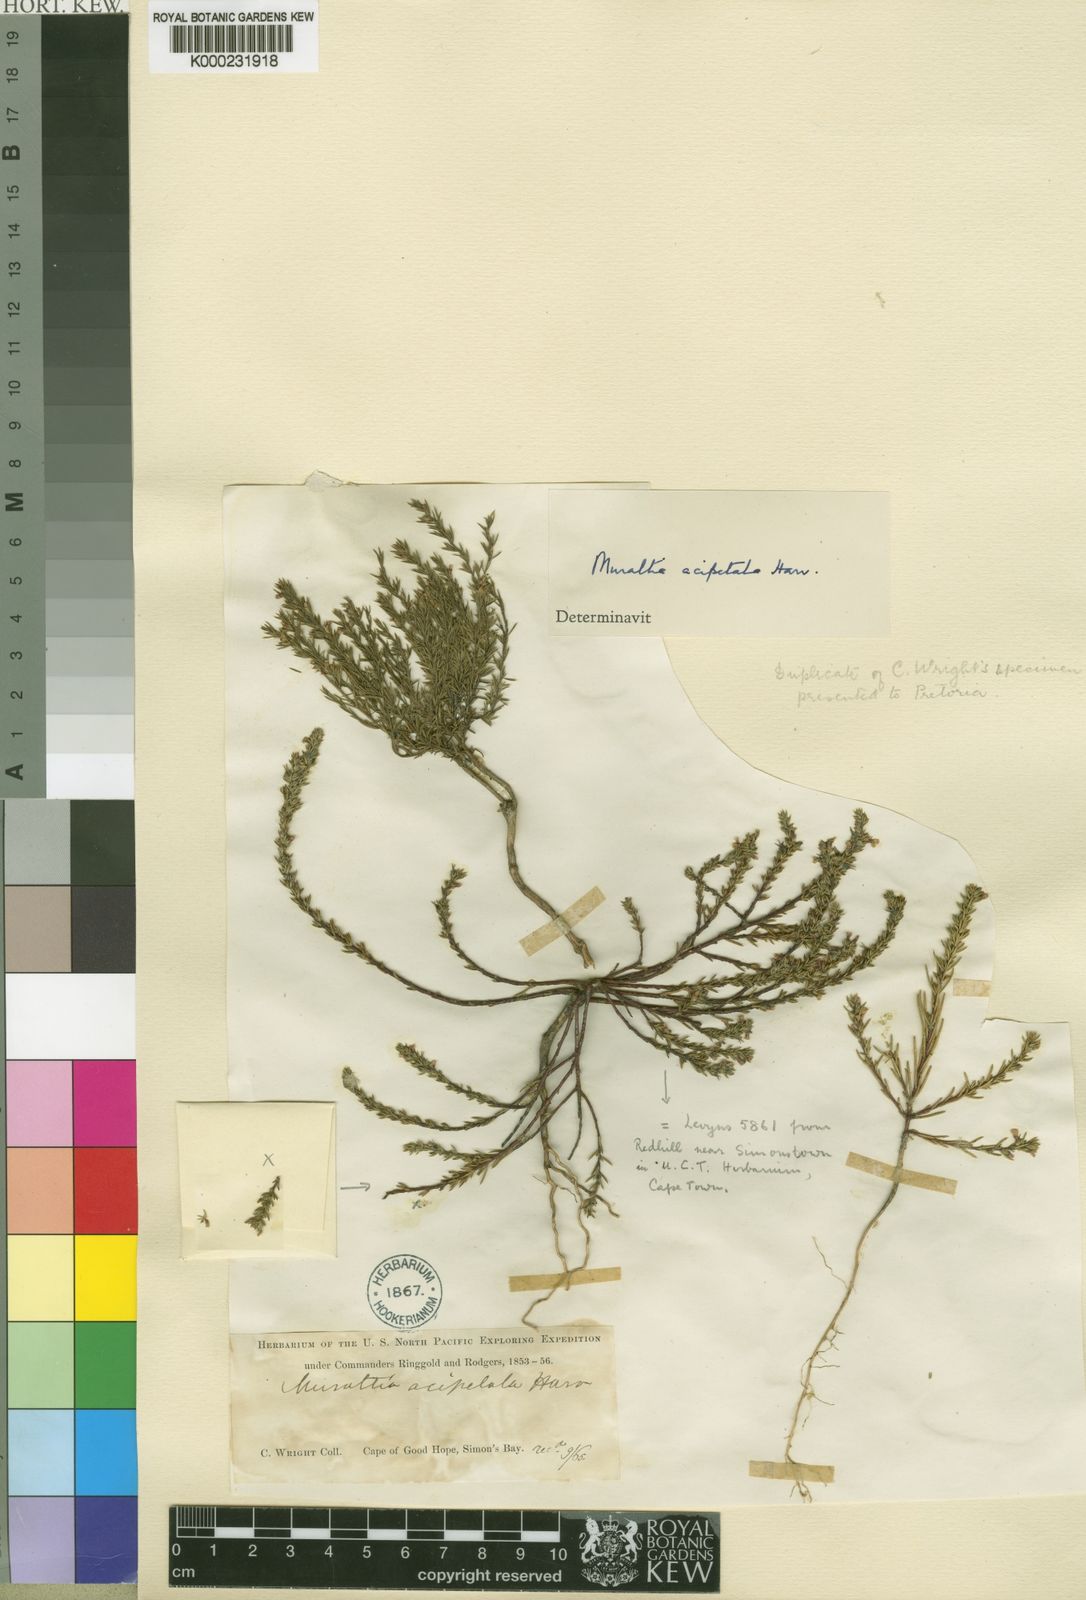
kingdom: Plantae
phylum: Tracheophyta
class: Magnoliopsida
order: Fabales
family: Polygalaceae
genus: Muraltia
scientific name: Muraltia acipetala
